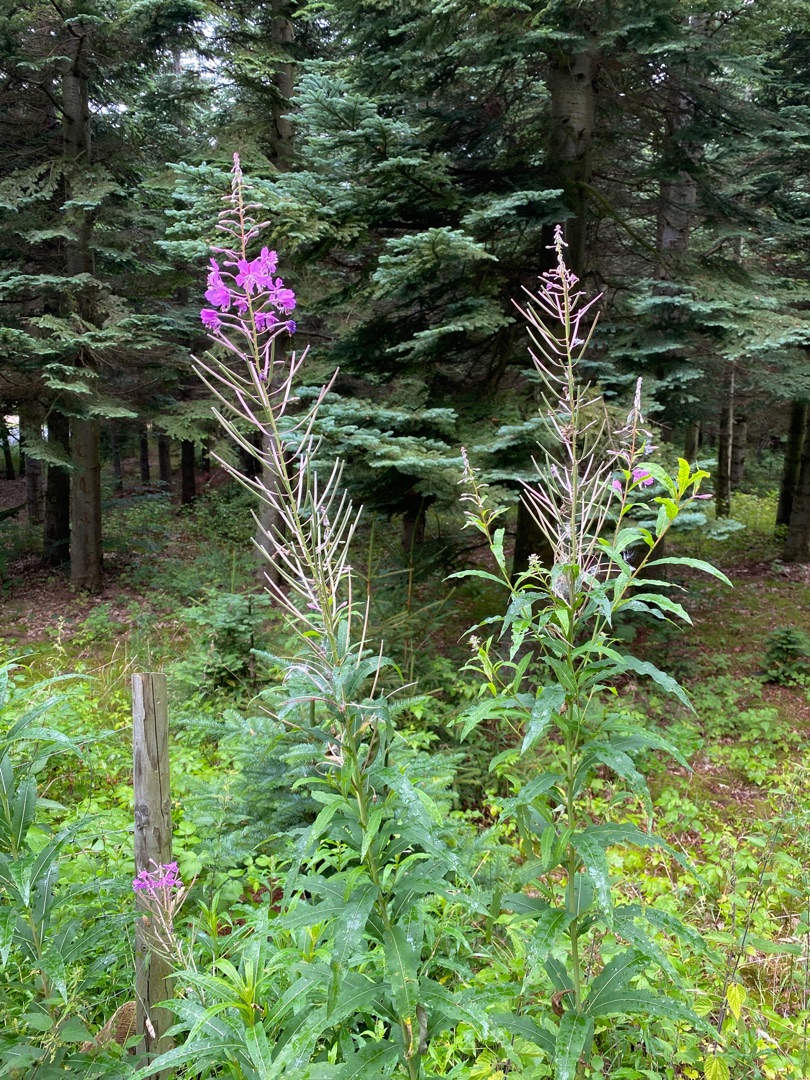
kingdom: Plantae
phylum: Tracheophyta
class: Magnoliopsida
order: Myrtales
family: Onagraceae
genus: Chamaenerion
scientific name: Chamaenerion angustifolium
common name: Gederams
